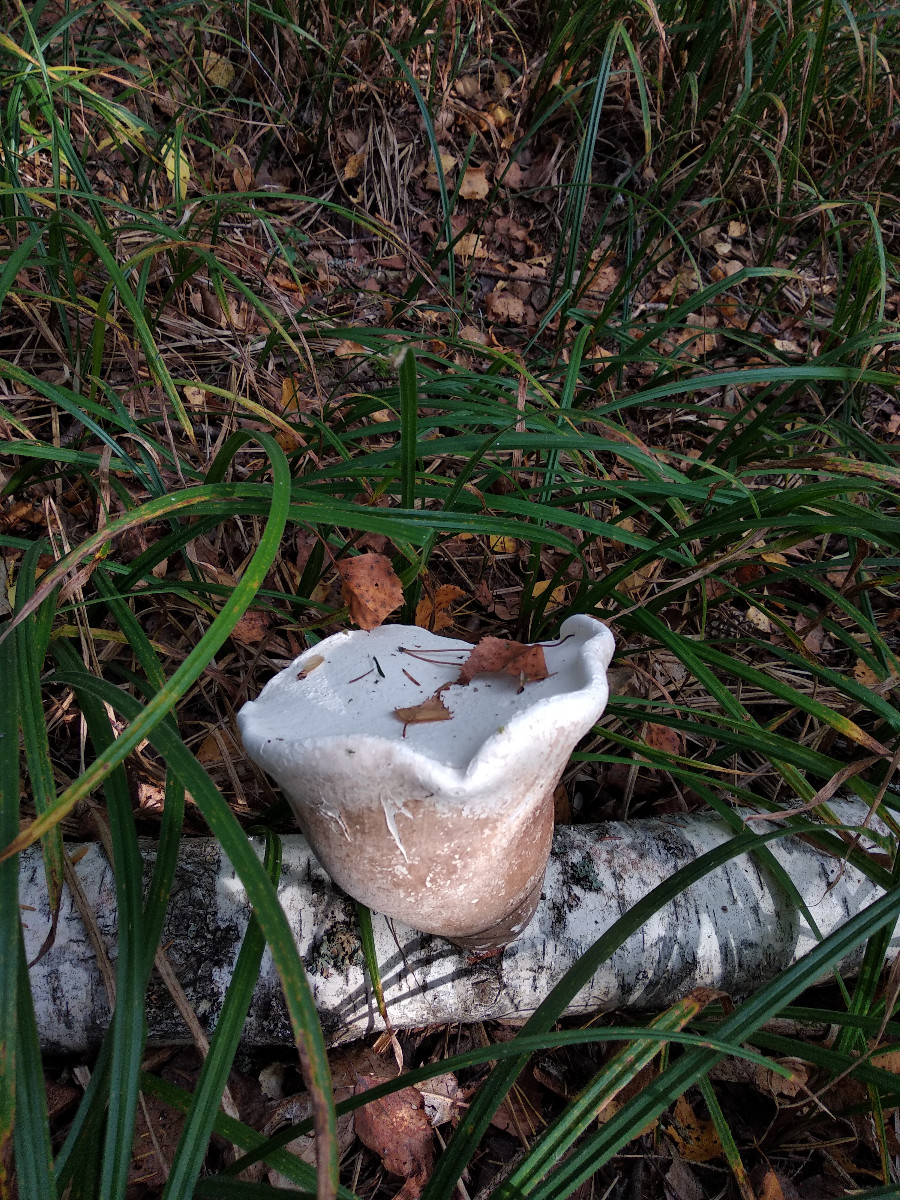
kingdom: Fungi
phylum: Basidiomycota
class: Agaricomycetes
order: Polyporales
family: Fomitopsidaceae
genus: Fomitopsis
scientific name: Fomitopsis betulina
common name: birkeporesvamp
